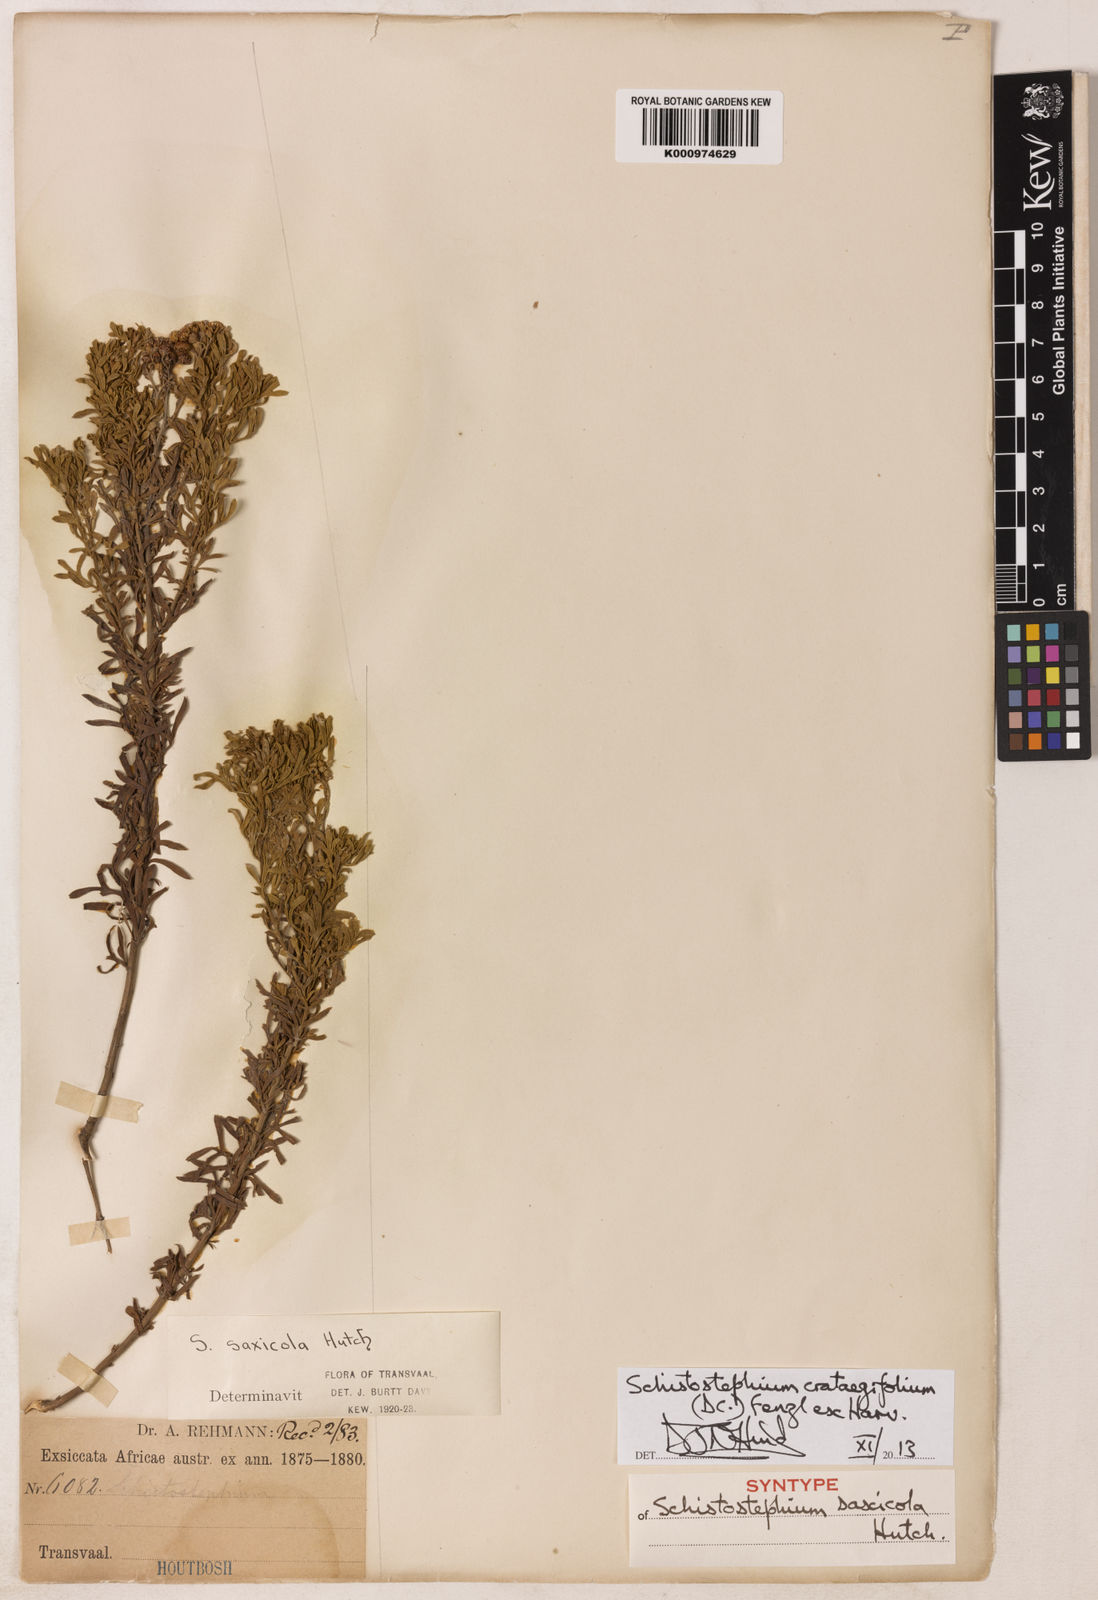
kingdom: Plantae
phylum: Tracheophyta
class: Magnoliopsida
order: Asterales
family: Asteraceae
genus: Schistostephium
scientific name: Schistostephium crataegifolium
